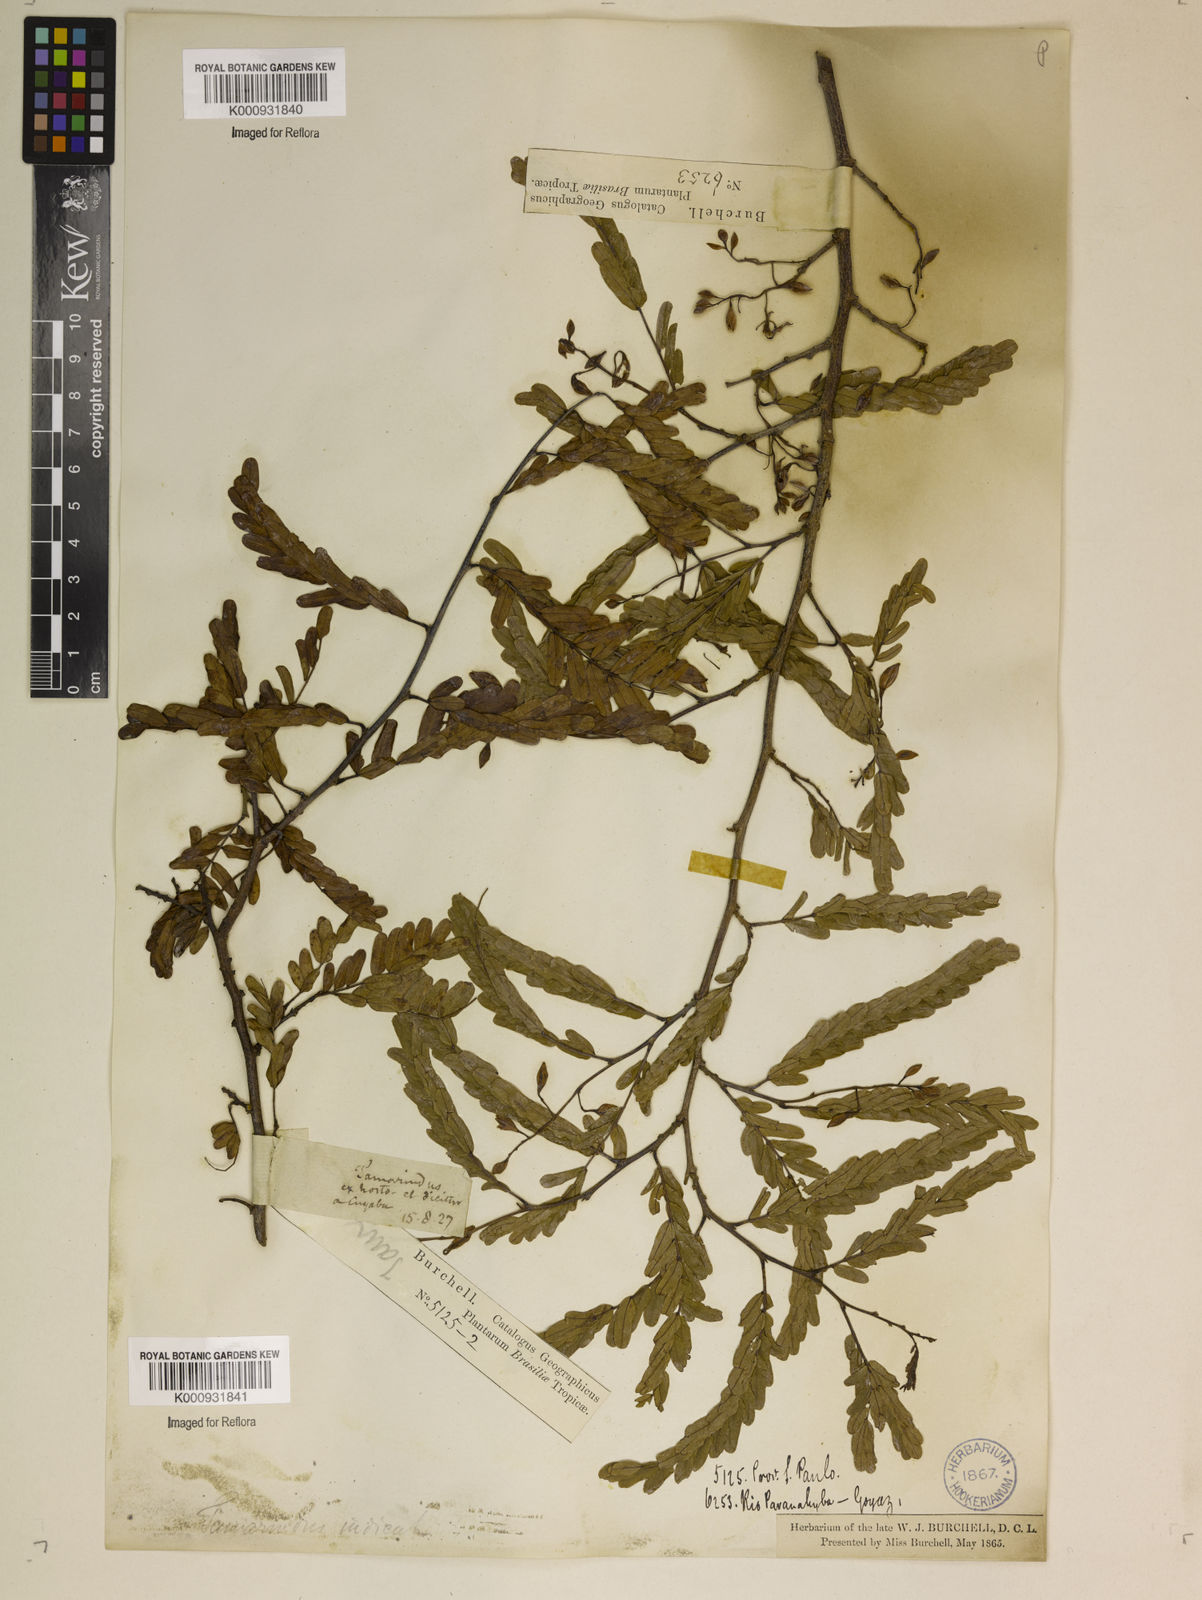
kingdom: Plantae
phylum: Tracheophyta
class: Magnoliopsida
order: Fabales
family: Fabaceae
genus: Tamarindus
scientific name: Tamarindus indica
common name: Tamarind
